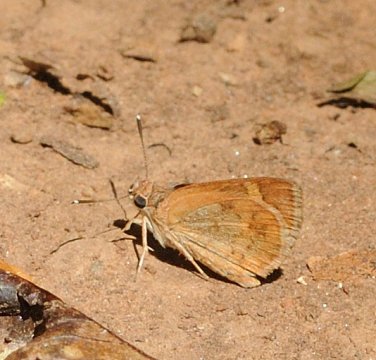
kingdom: Animalia
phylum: Arthropoda
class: Insecta
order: Lepidoptera
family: Hesperiidae
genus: Gegenes
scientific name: Gegenes
